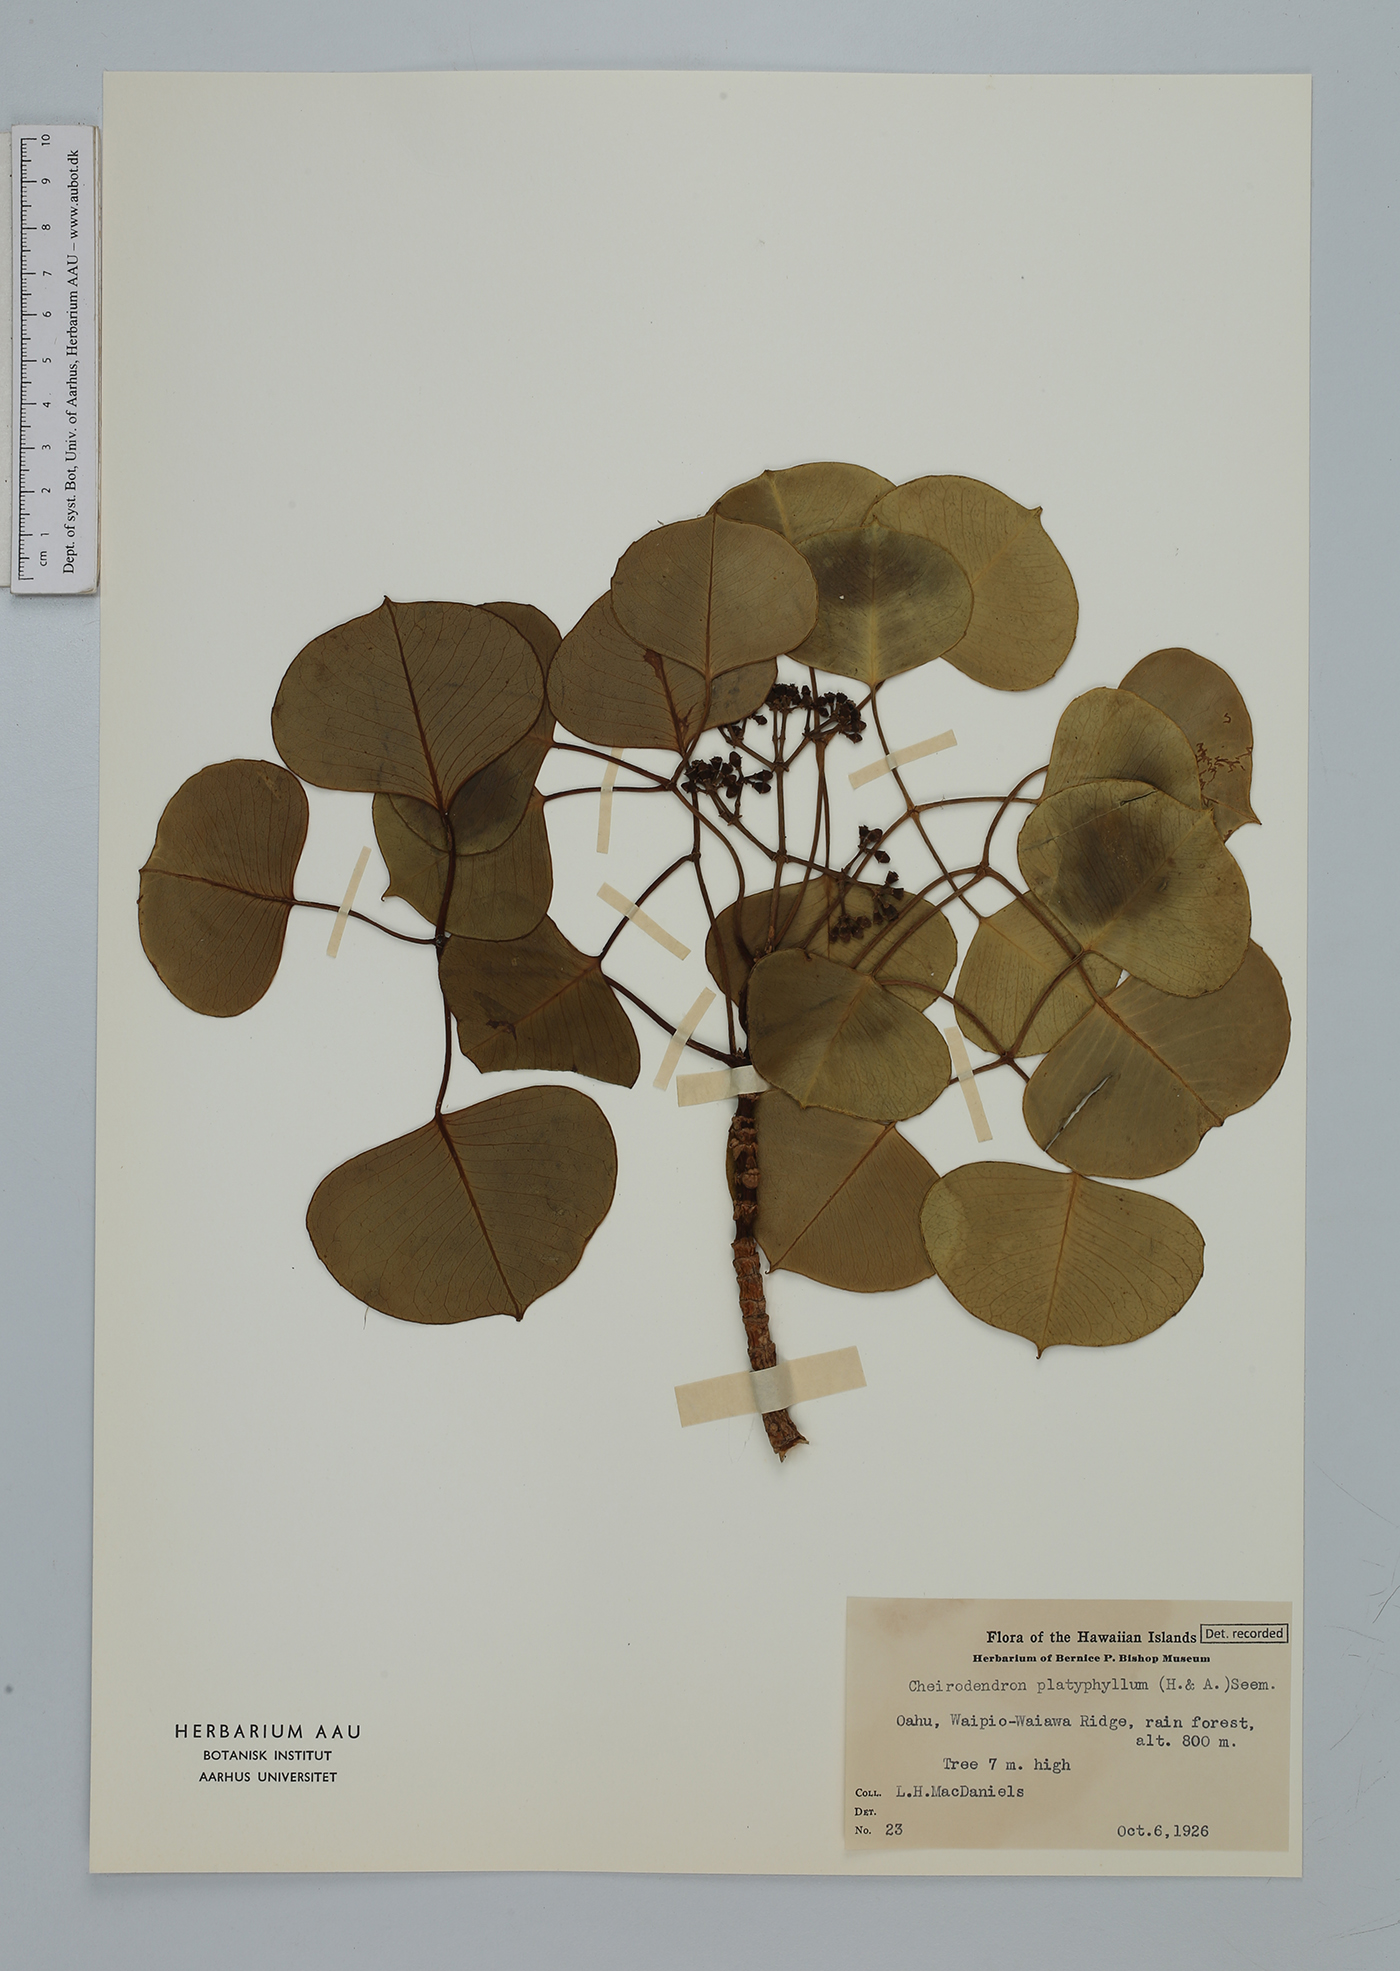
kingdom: Plantae
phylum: Tracheophyta
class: Magnoliopsida
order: Apiales
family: Araliaceae
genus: Cheirodendron
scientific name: Cheirodendron platyphyllum
